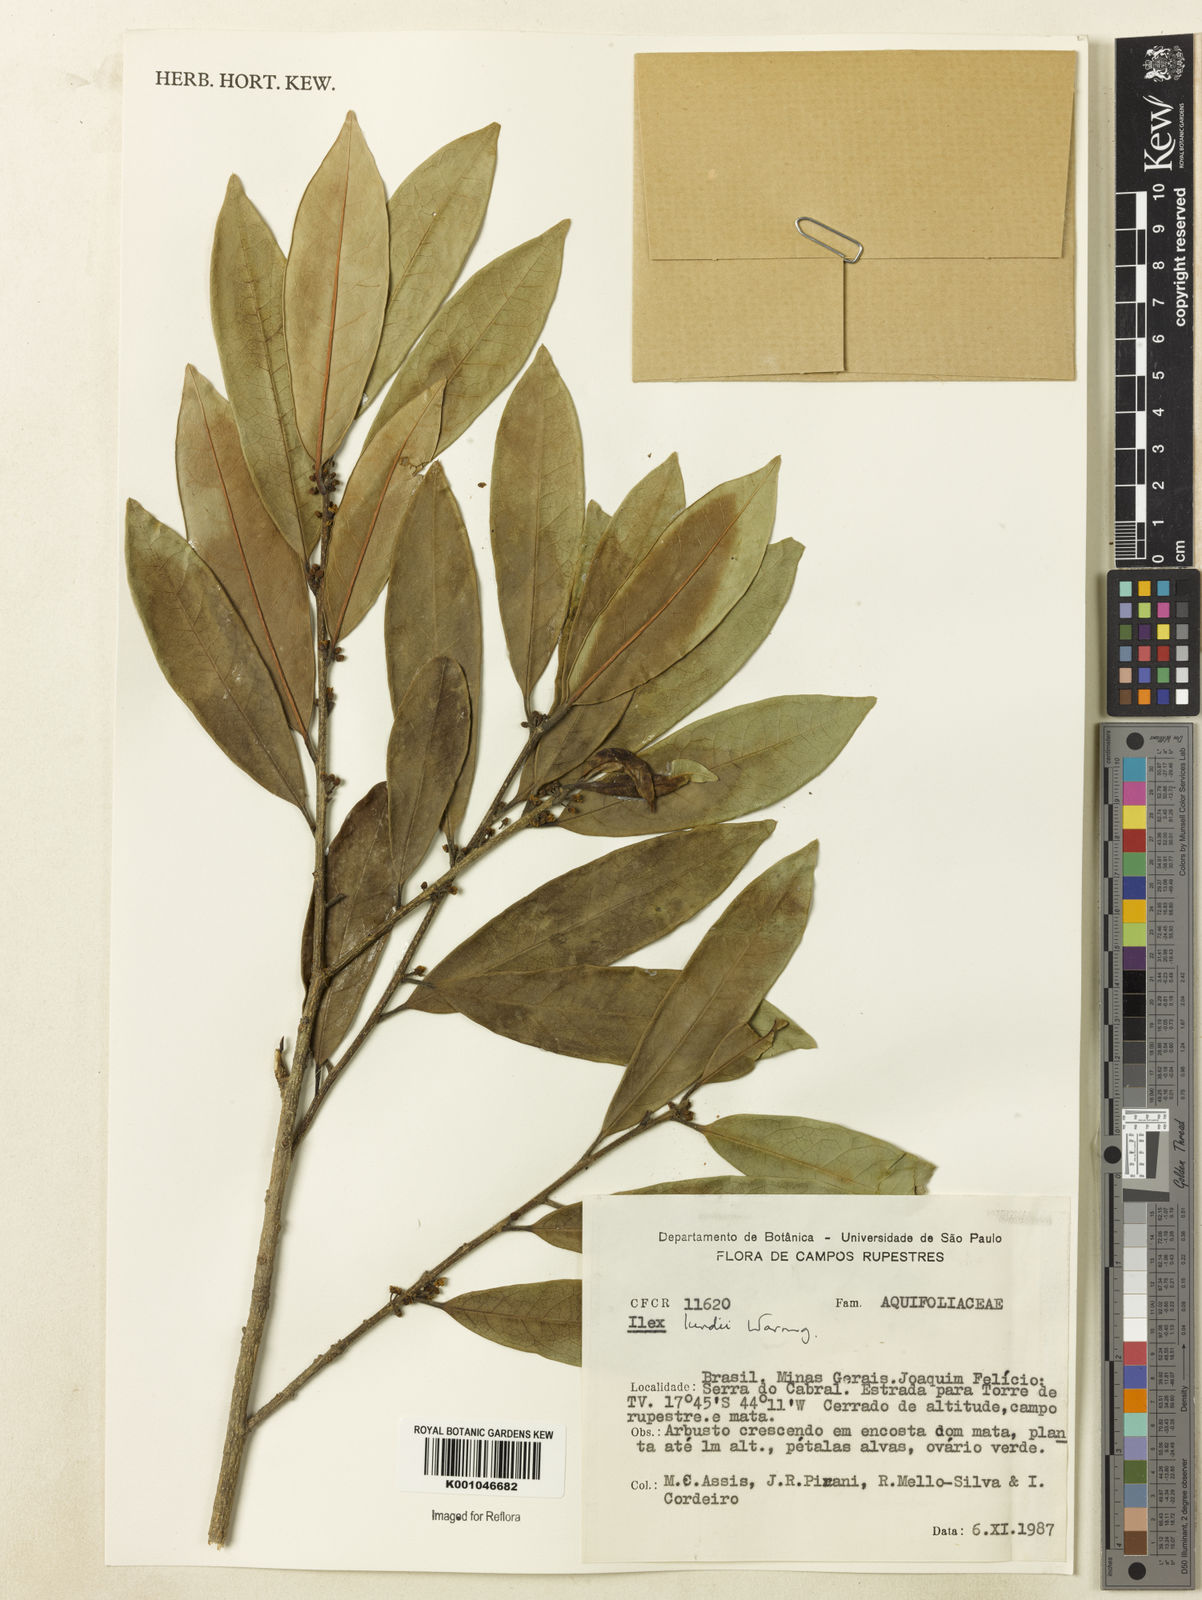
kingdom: Plantae
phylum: Tracheophyta
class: Magnoliopsida
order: Aquifoliales
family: Aquifoliaceae
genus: Ilex
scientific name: Ilex lundii
